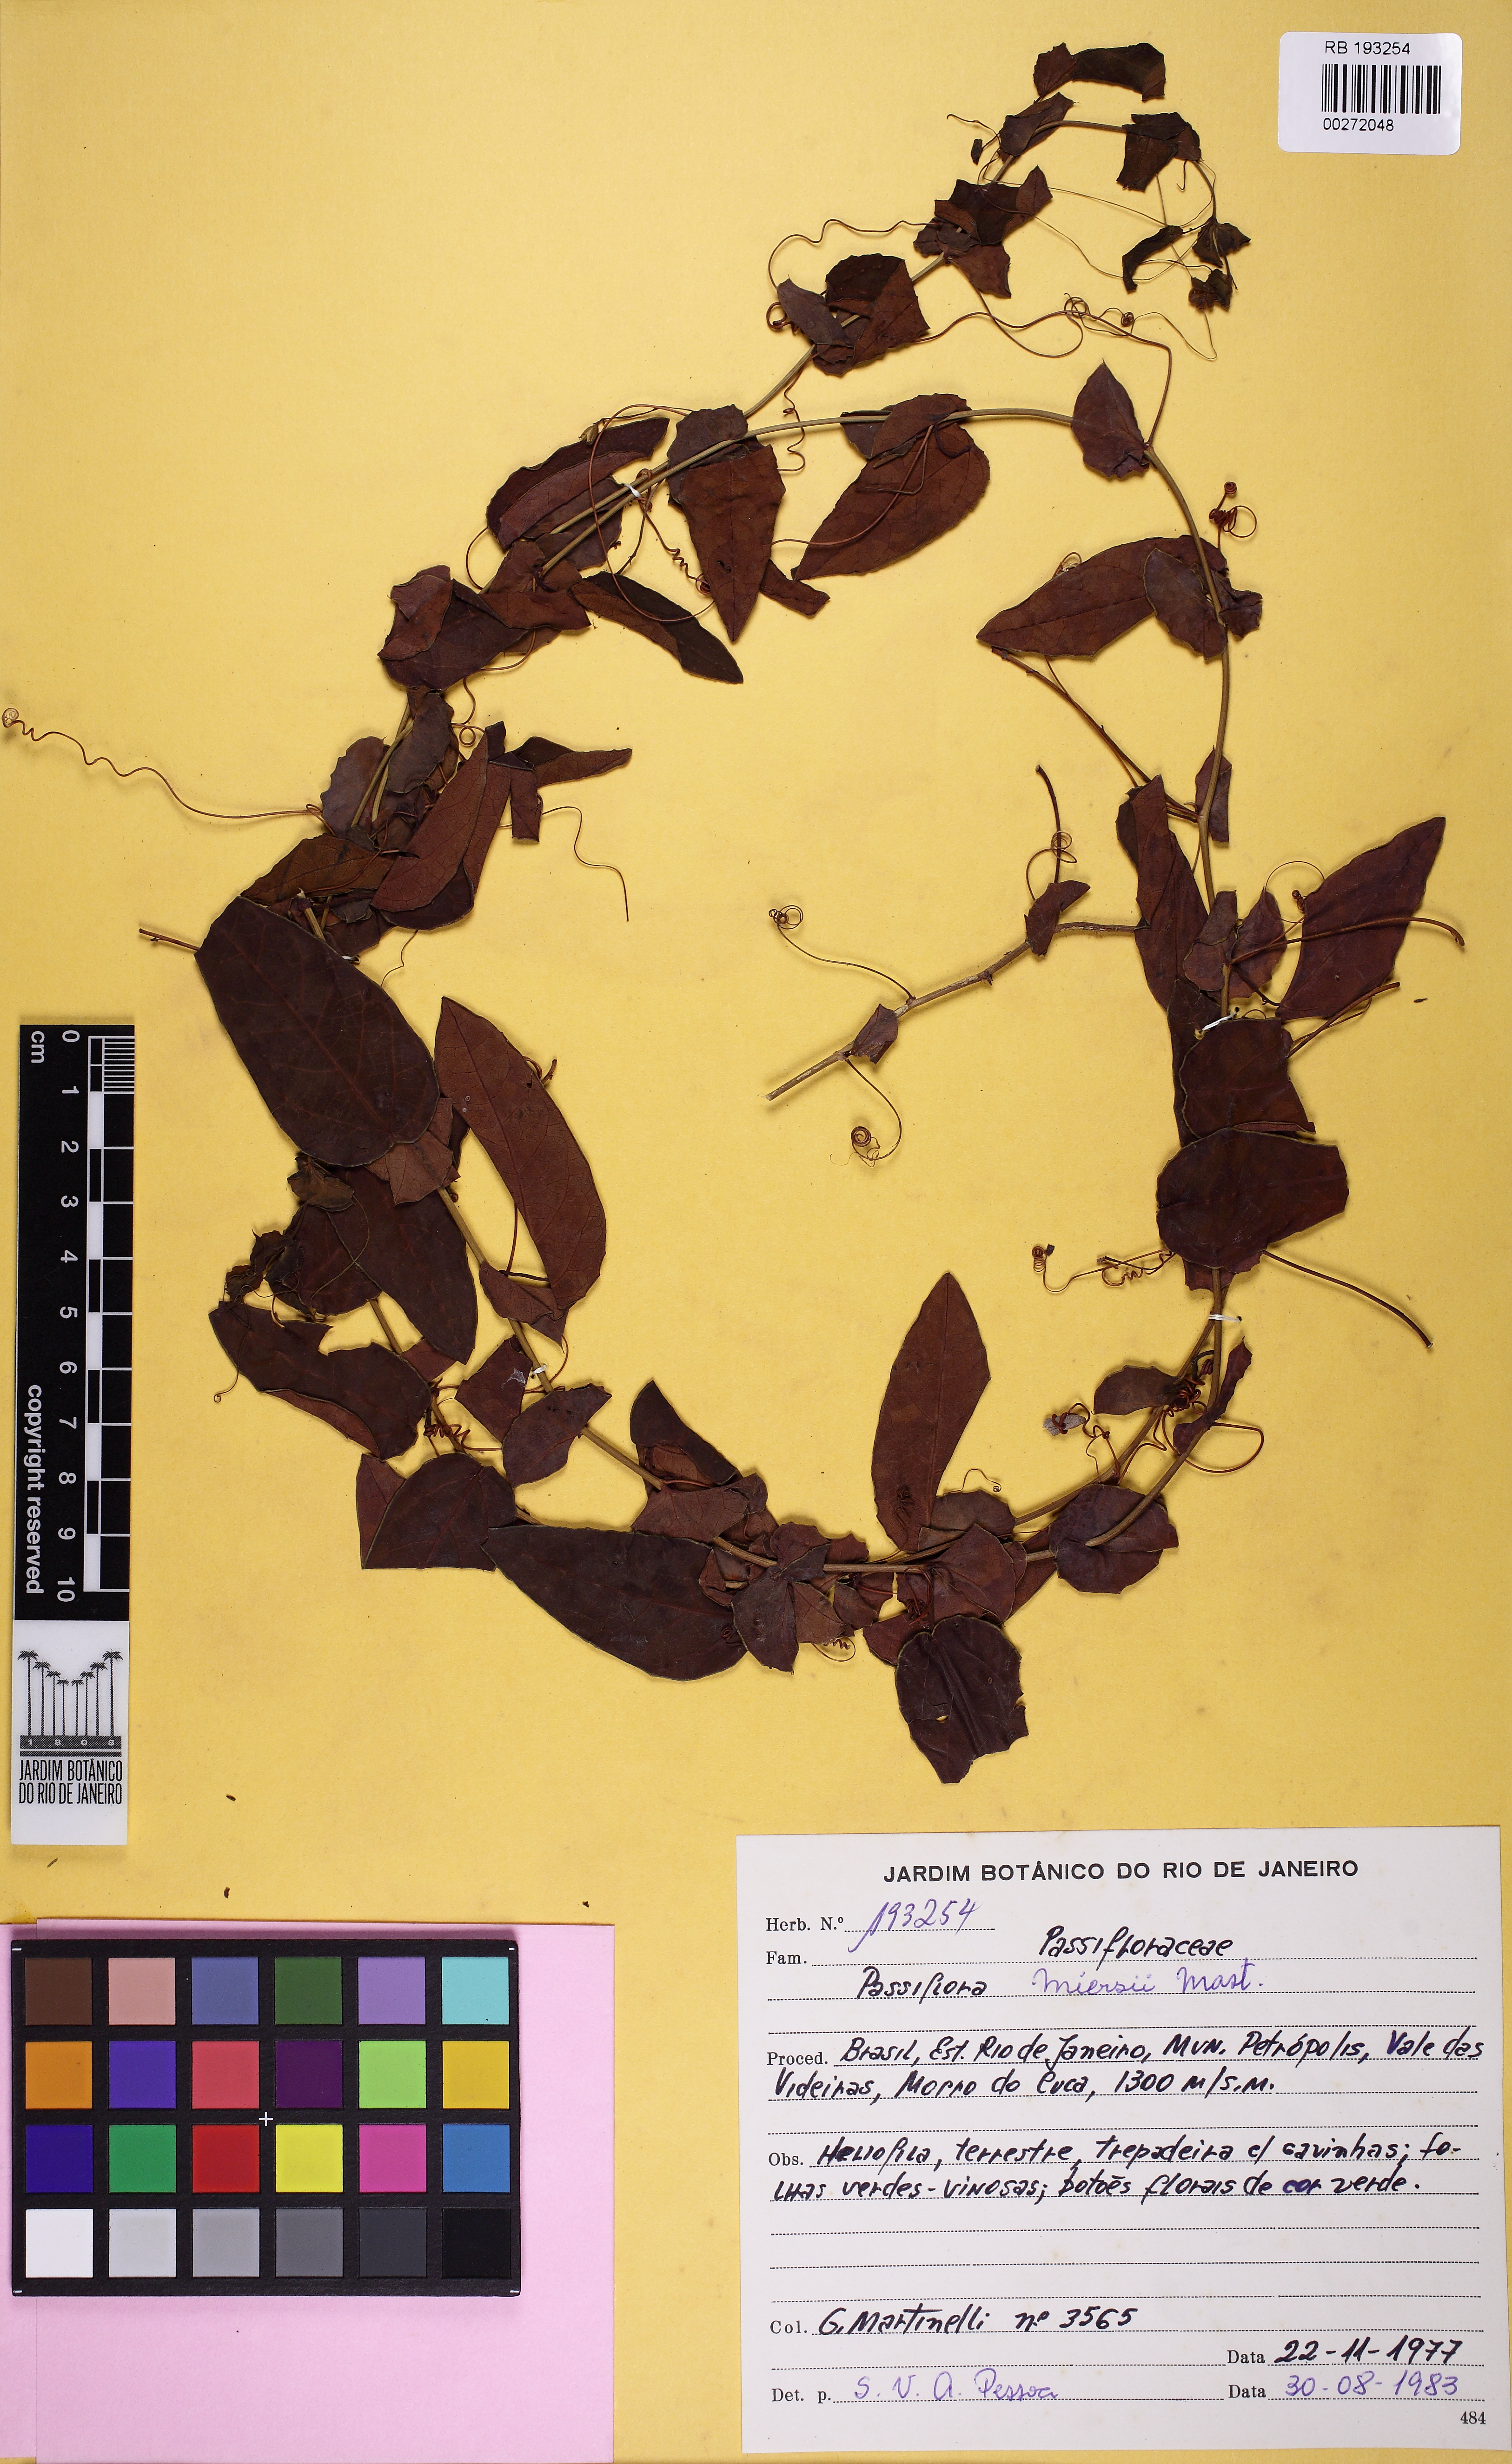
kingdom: Plantae
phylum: Tracheophyta
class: Magnoliopsida
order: Malpighiales
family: Passifloraceae
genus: Passiflora
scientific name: Passiflora miersii
